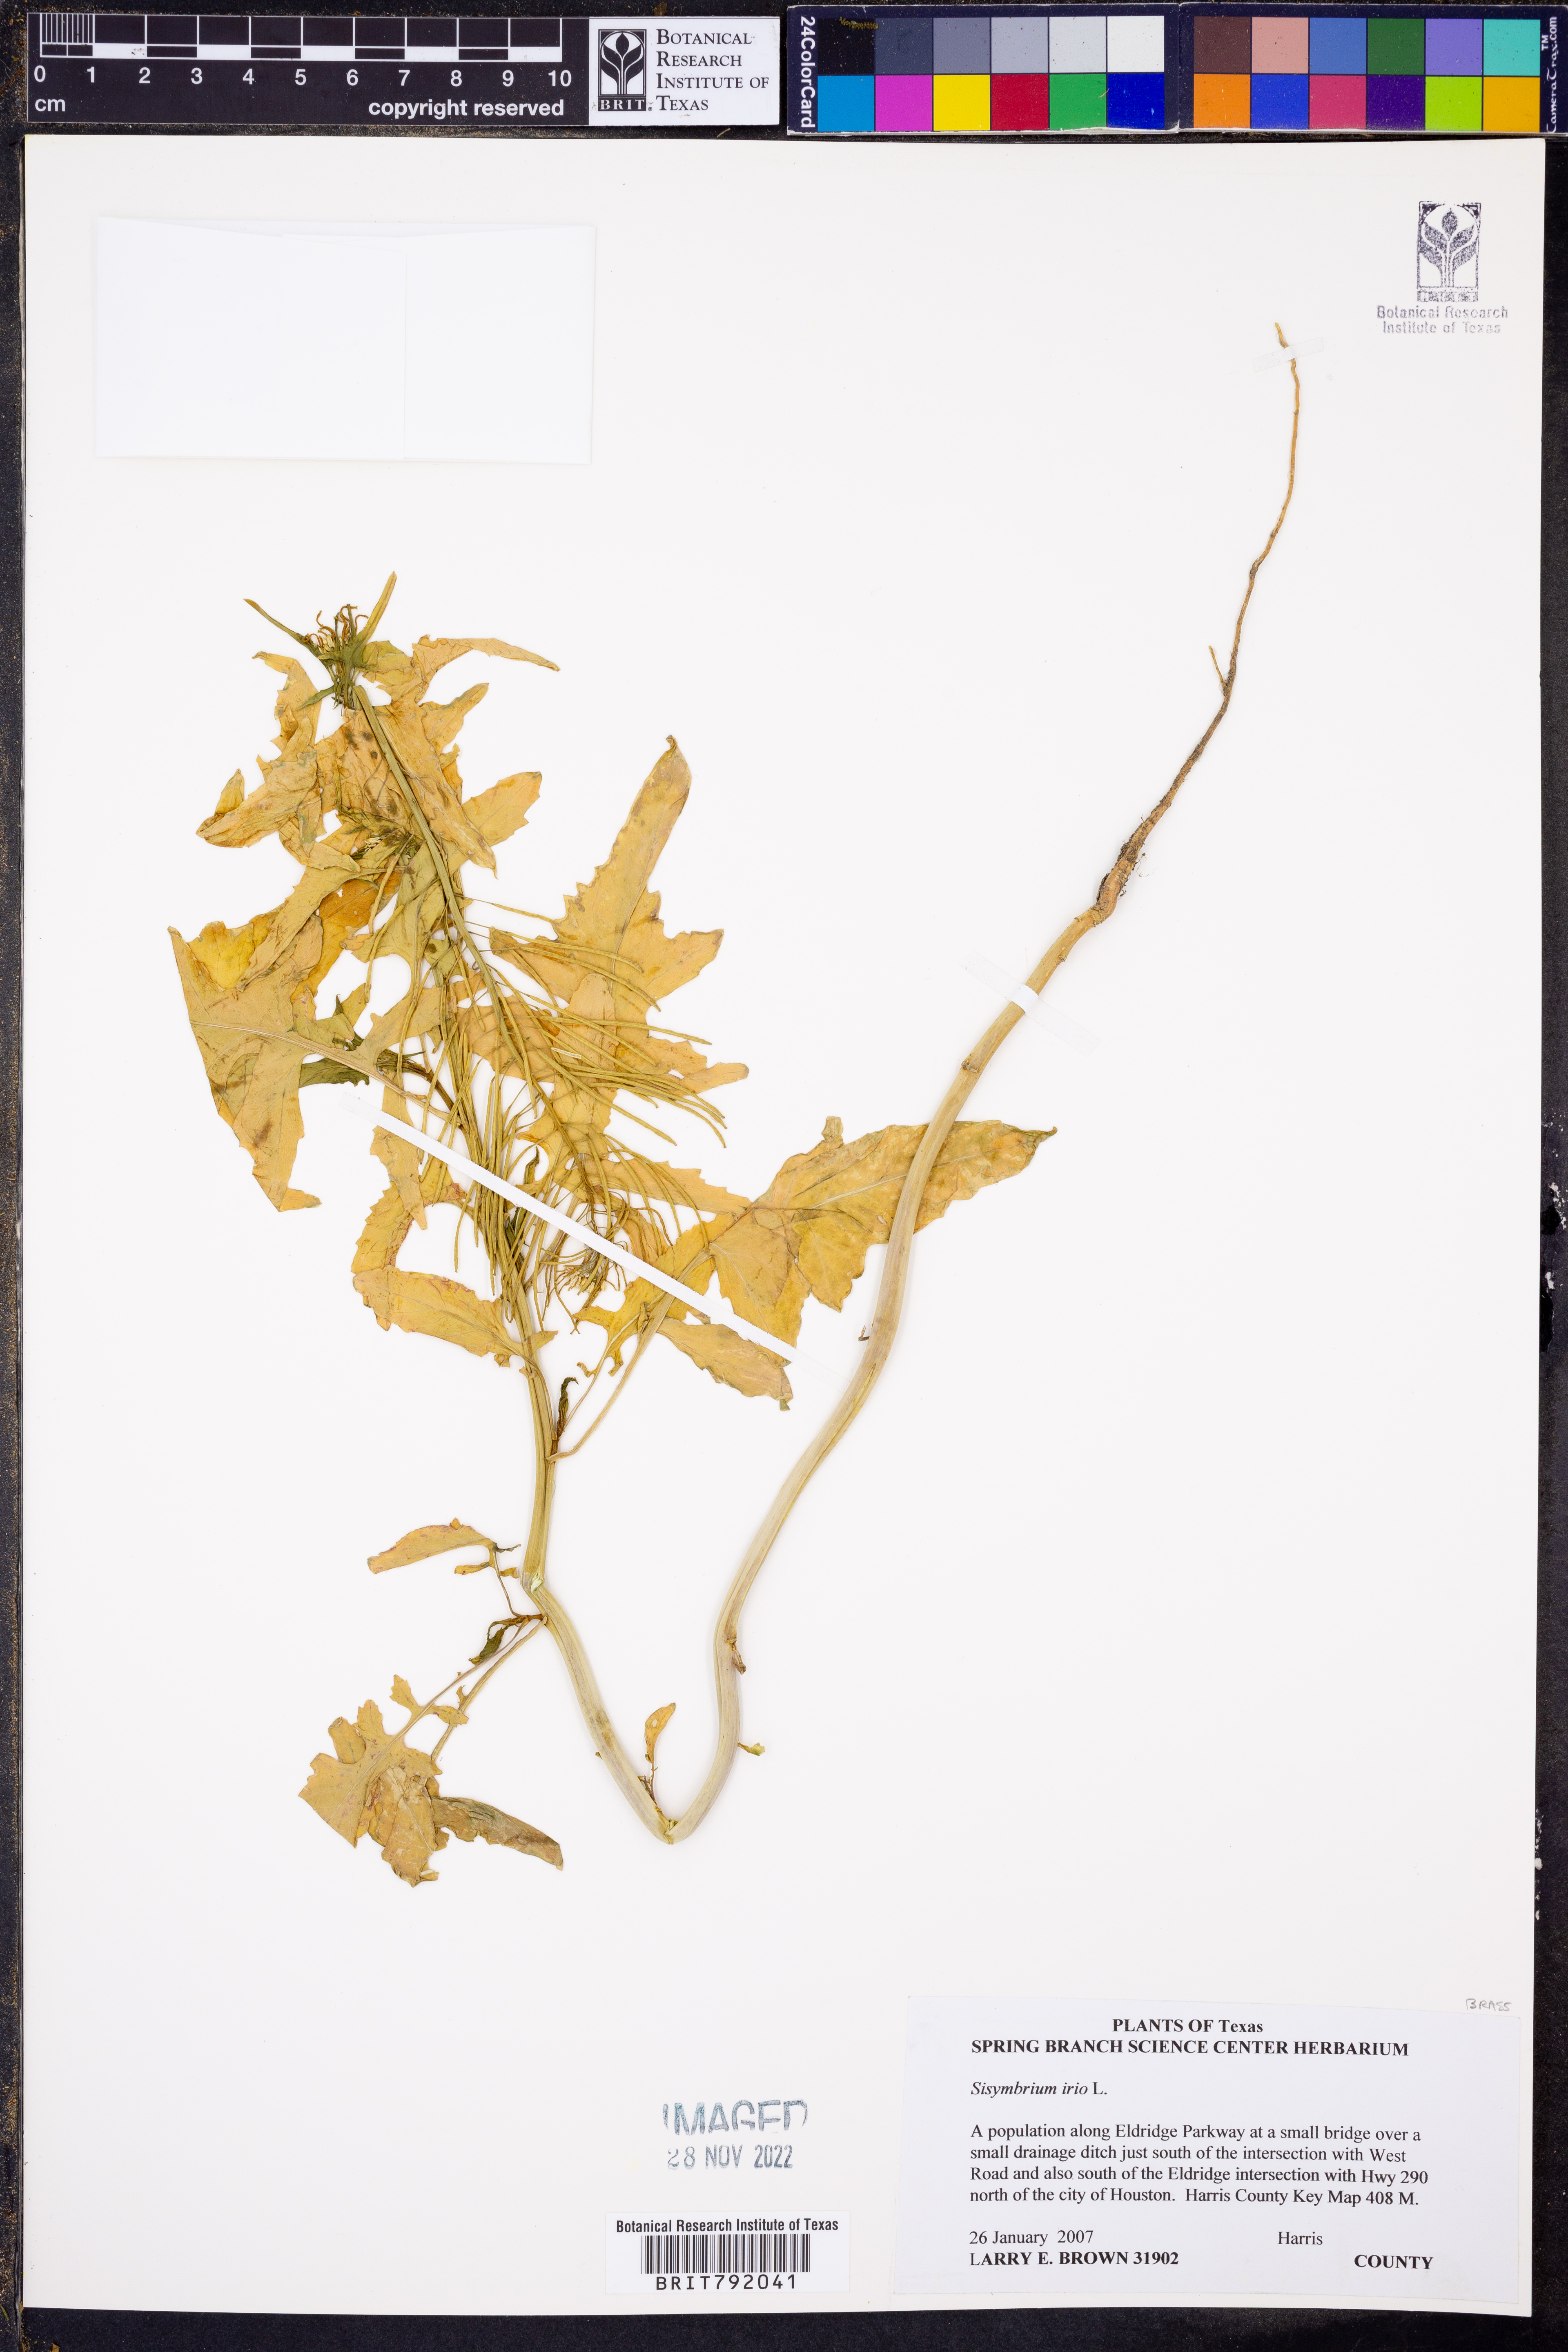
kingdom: Plantae
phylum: Tracheophyta
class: Magnoliopsida
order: Brassicales
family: Brassicaceae
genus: Sisymbrium
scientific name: Sisymbrium irio
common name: London rocket
